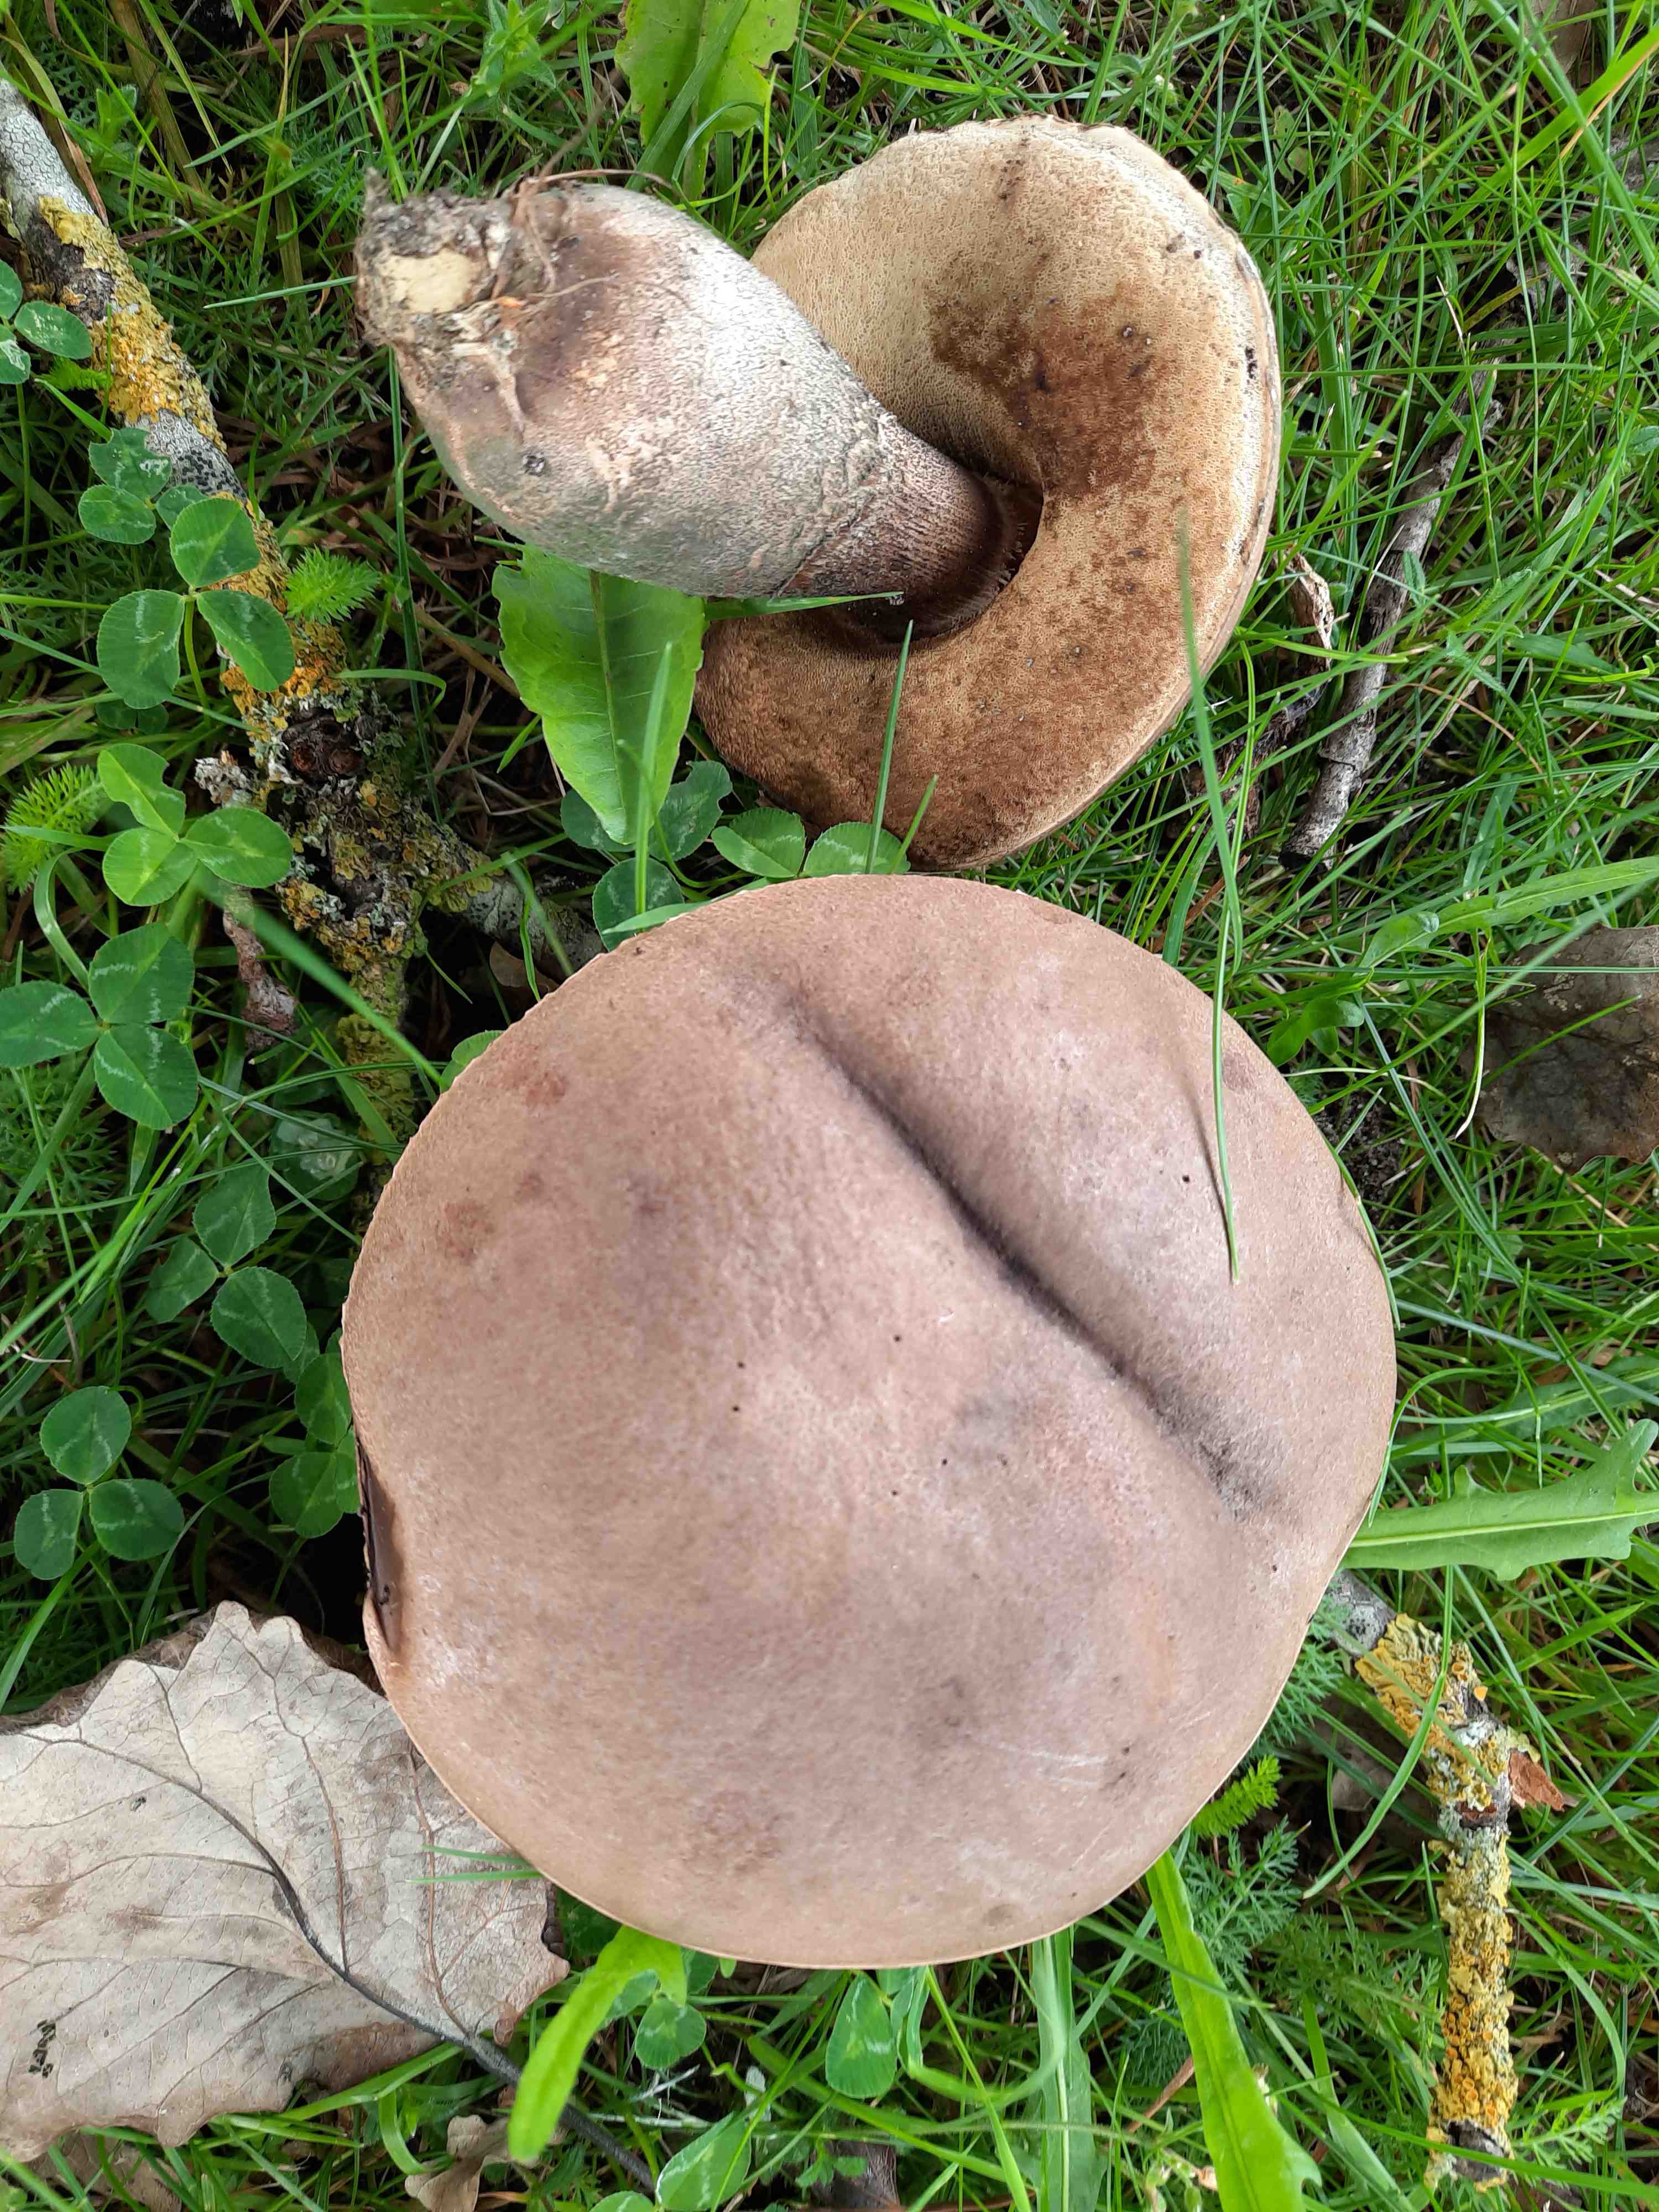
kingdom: Fungi
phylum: Basidiomycota
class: Agaricomycetes
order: Boletales
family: Boletaceae
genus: Leccinum
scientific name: Leccinum duriusculum
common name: poppel-skælrørhat
